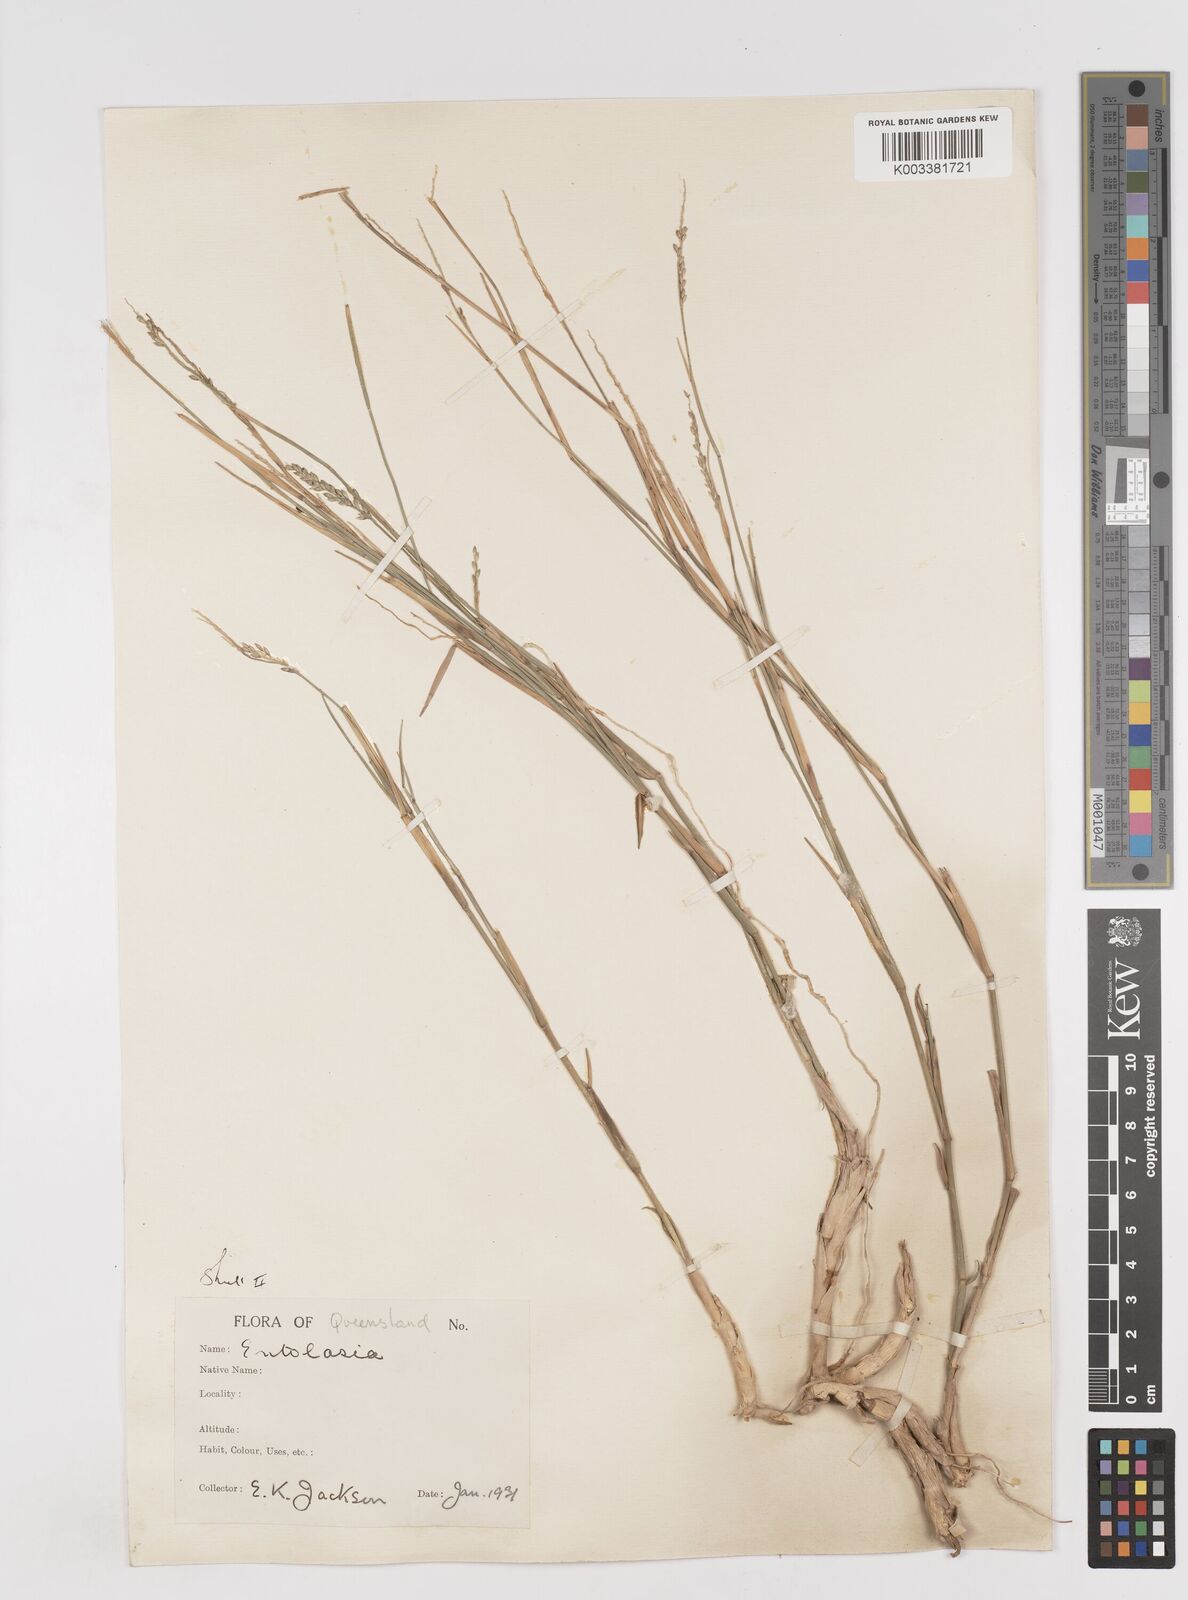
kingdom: Plantae
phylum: Tracheophyta
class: Liliopsida
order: Poales
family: Poaceae
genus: Entolasia
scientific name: Entolasia stricta
